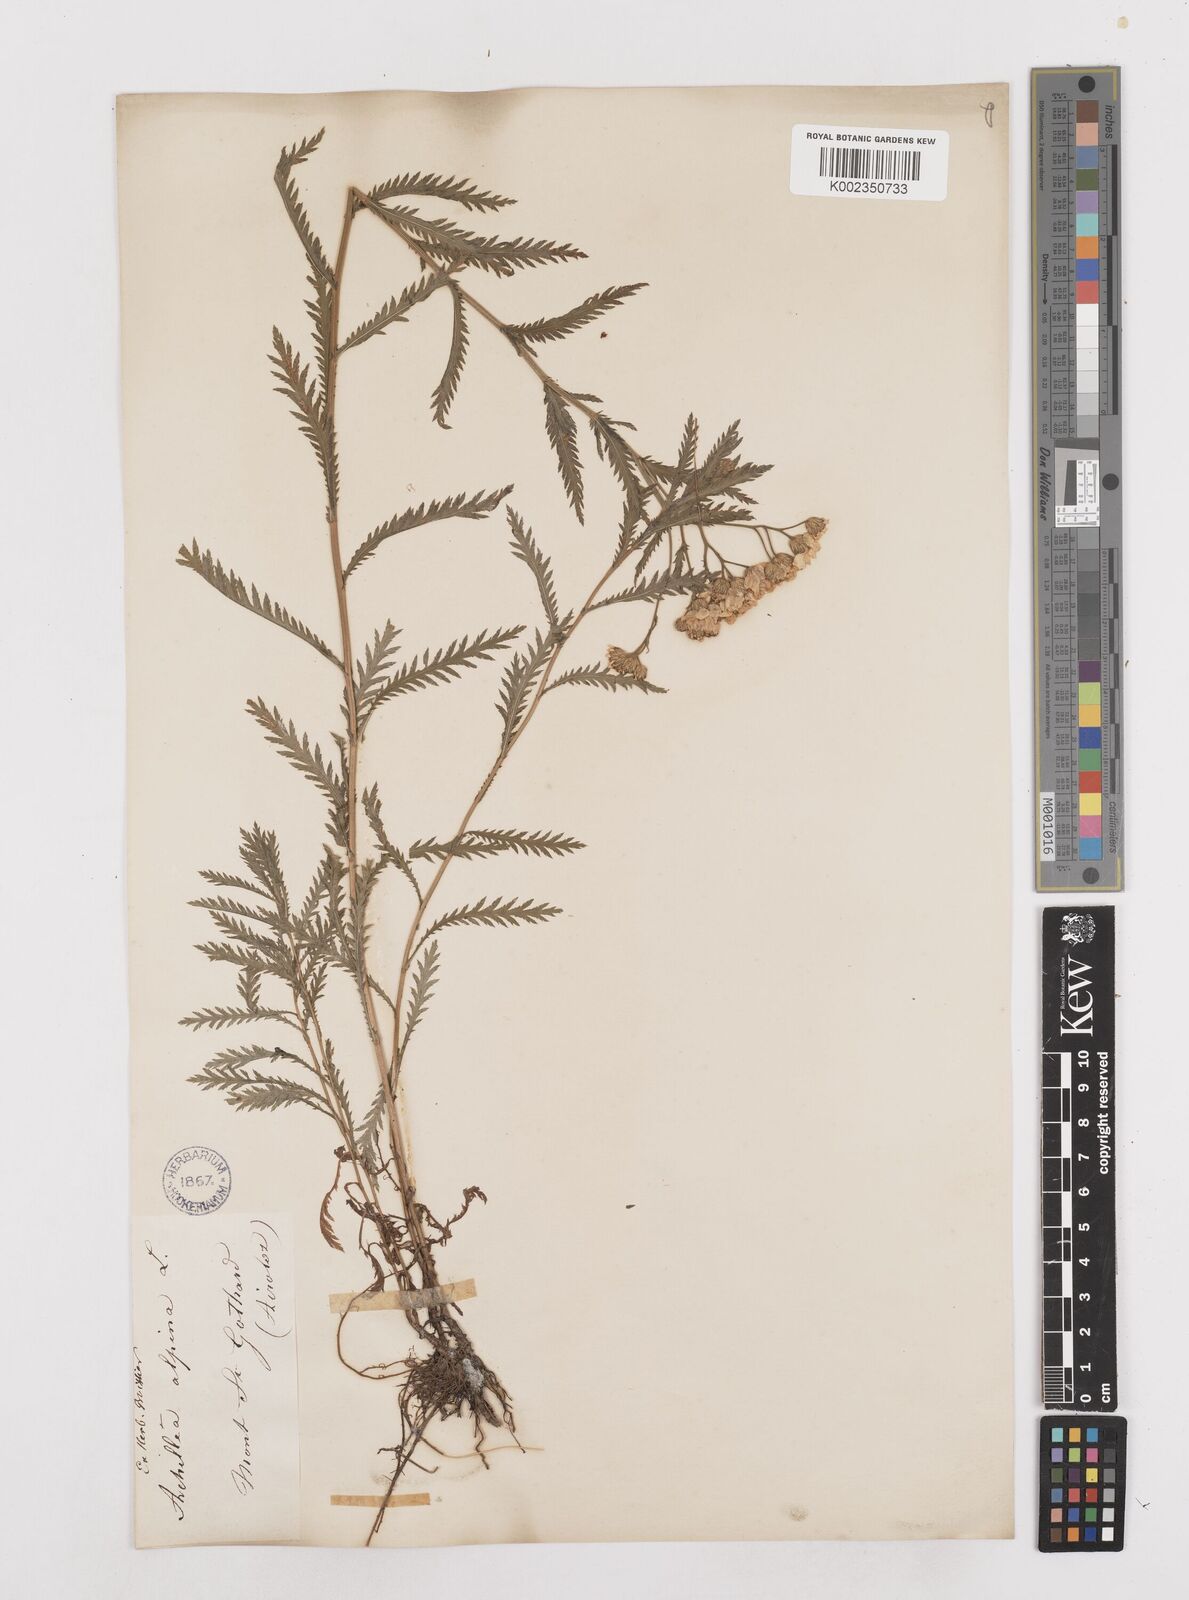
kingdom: Plantae
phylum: Tracheophyta
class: Magnoliopsida
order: Asterales
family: Asteraceae
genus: Achillea
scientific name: Achillea impatiens
